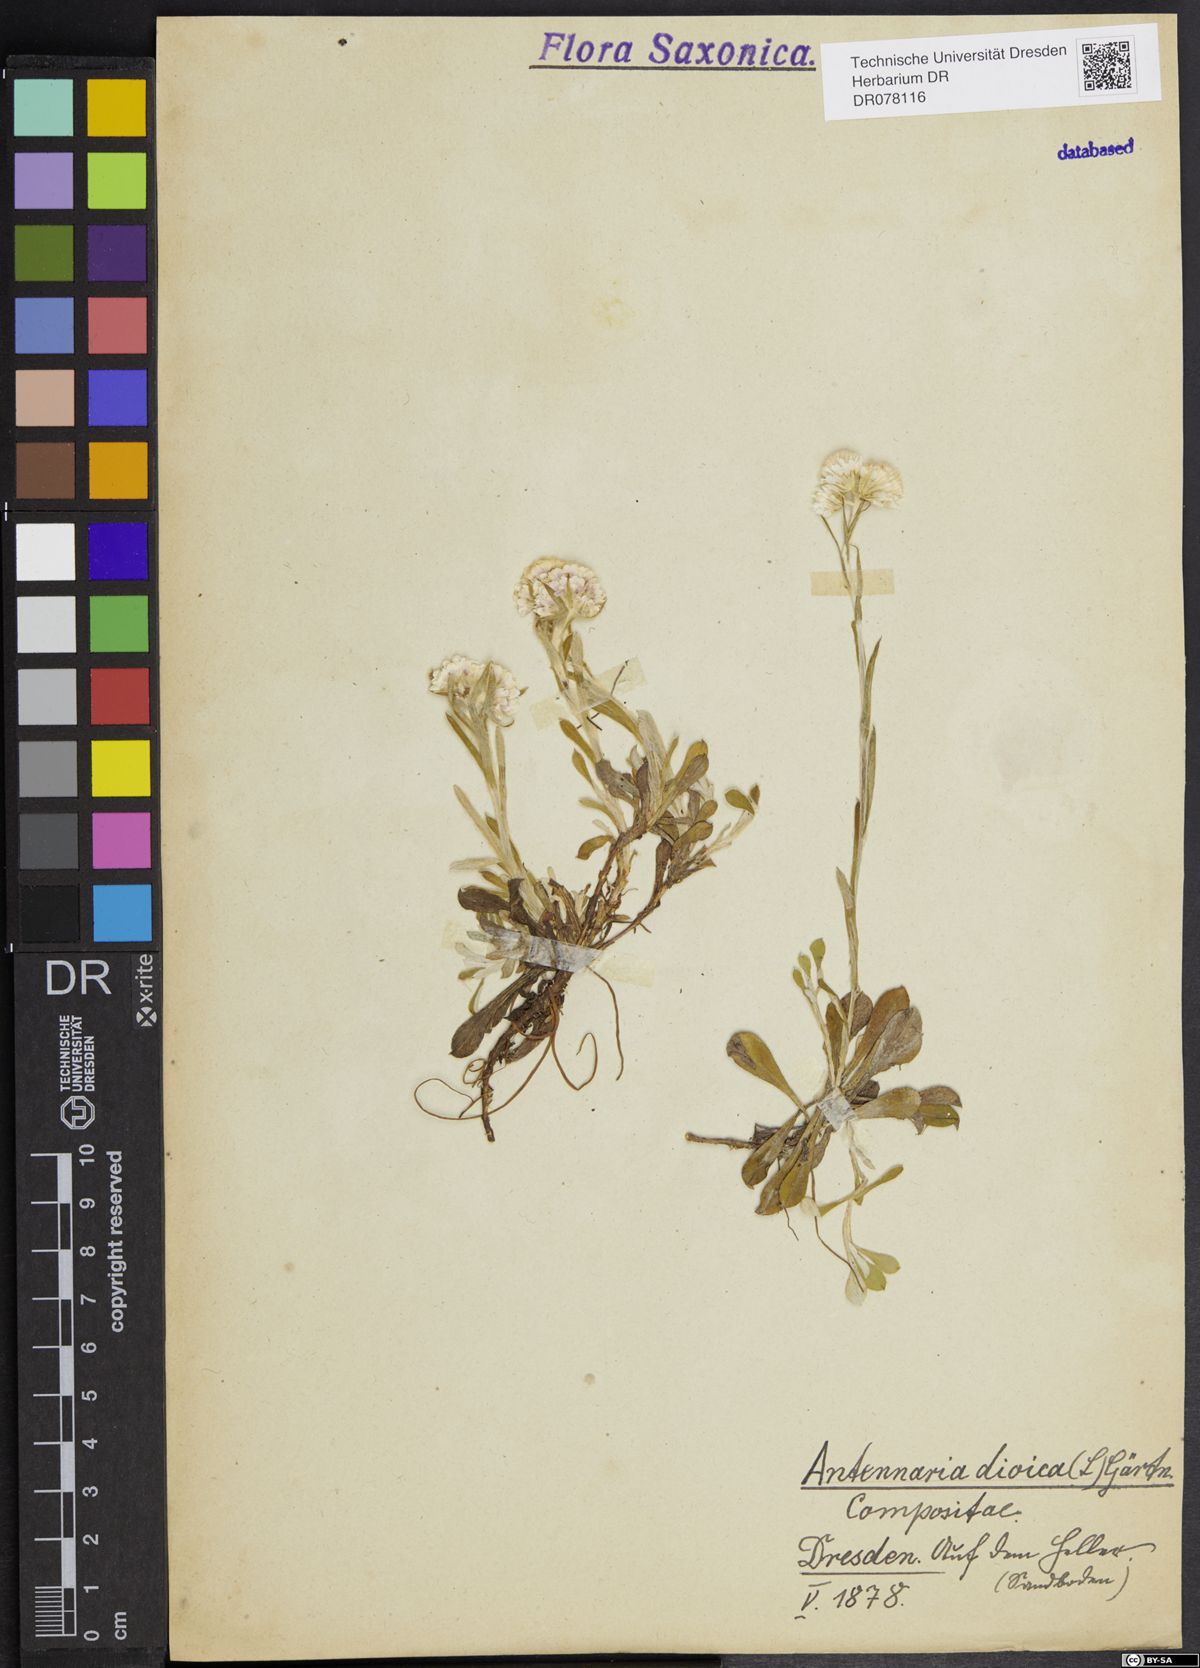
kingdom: Plantae
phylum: Tracheophyta
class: Magnoliopsida
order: Asterales
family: Asteraceae
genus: Antennaria
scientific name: Antennaria dioica
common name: Mountain everlasting
